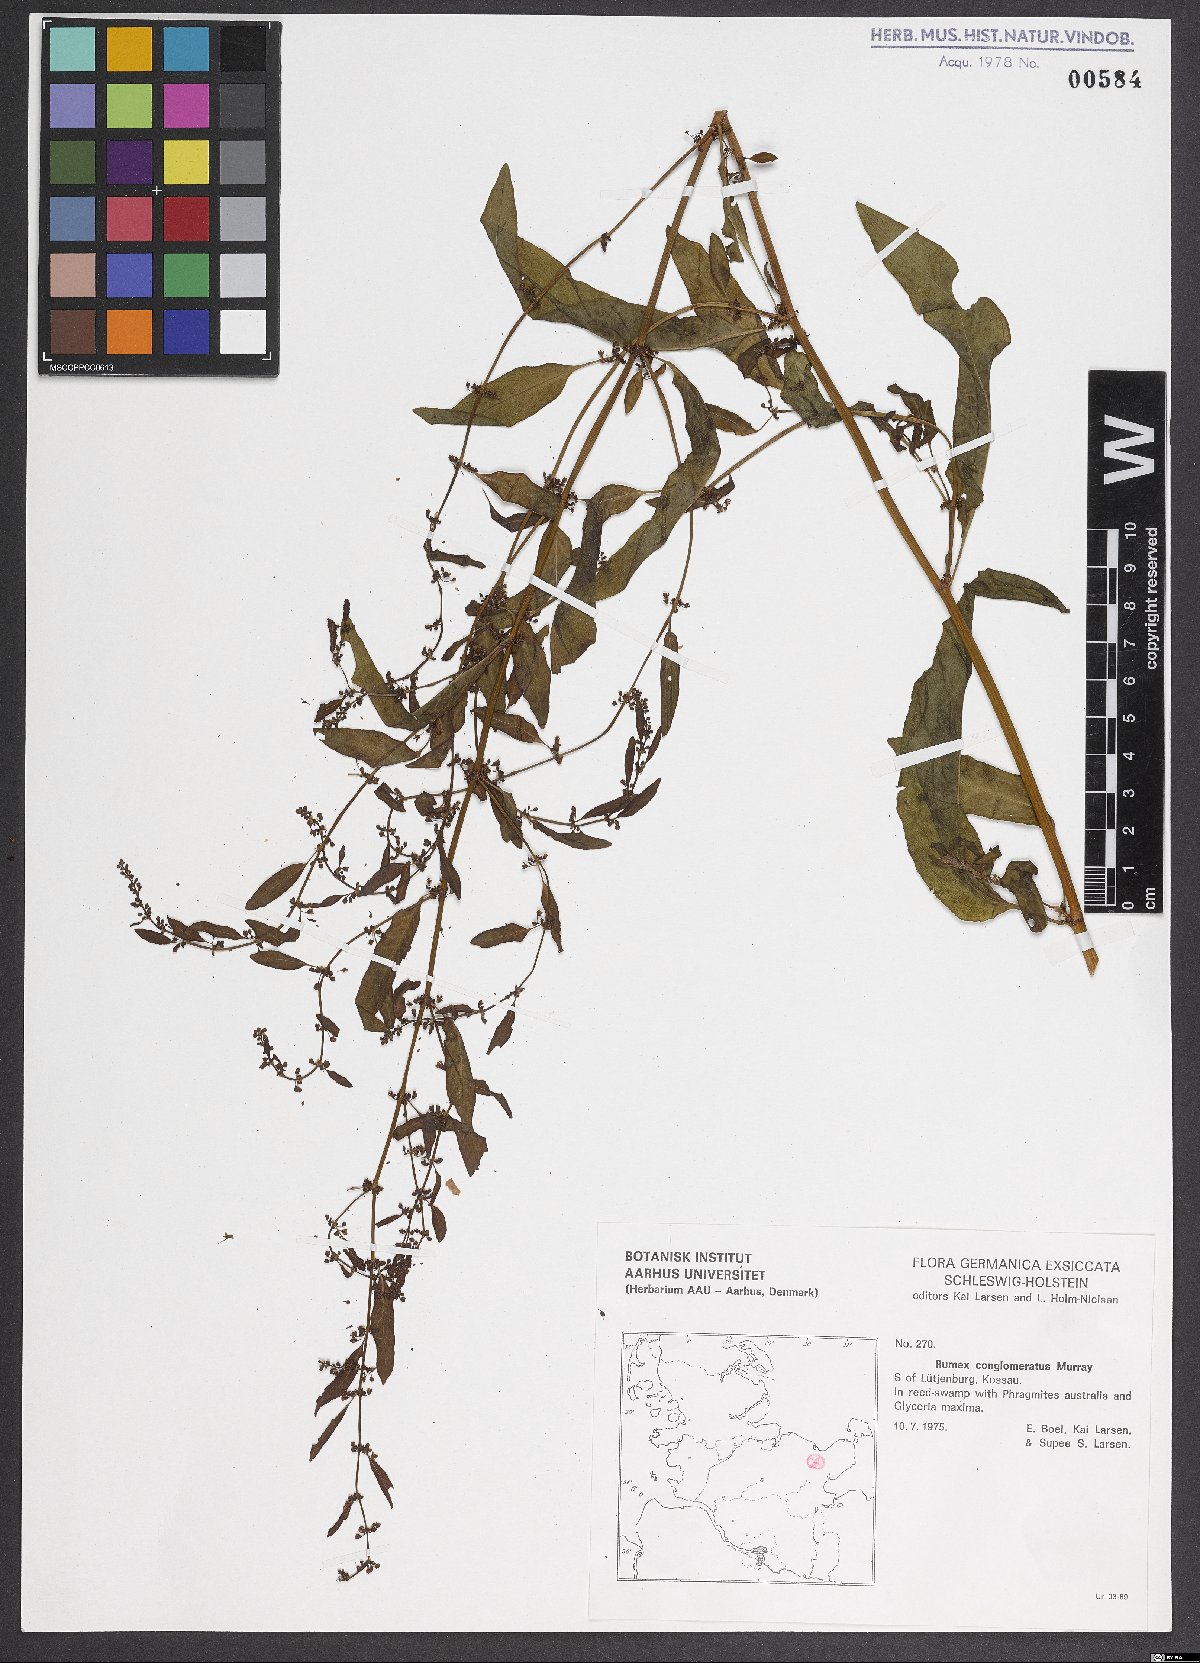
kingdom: Plantae
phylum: Tracheophyta
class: Magnoliopsida
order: Caryophyllales
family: Polygonaceae
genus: Rumex
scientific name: Rumex conglomeratus
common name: Clustered dock
